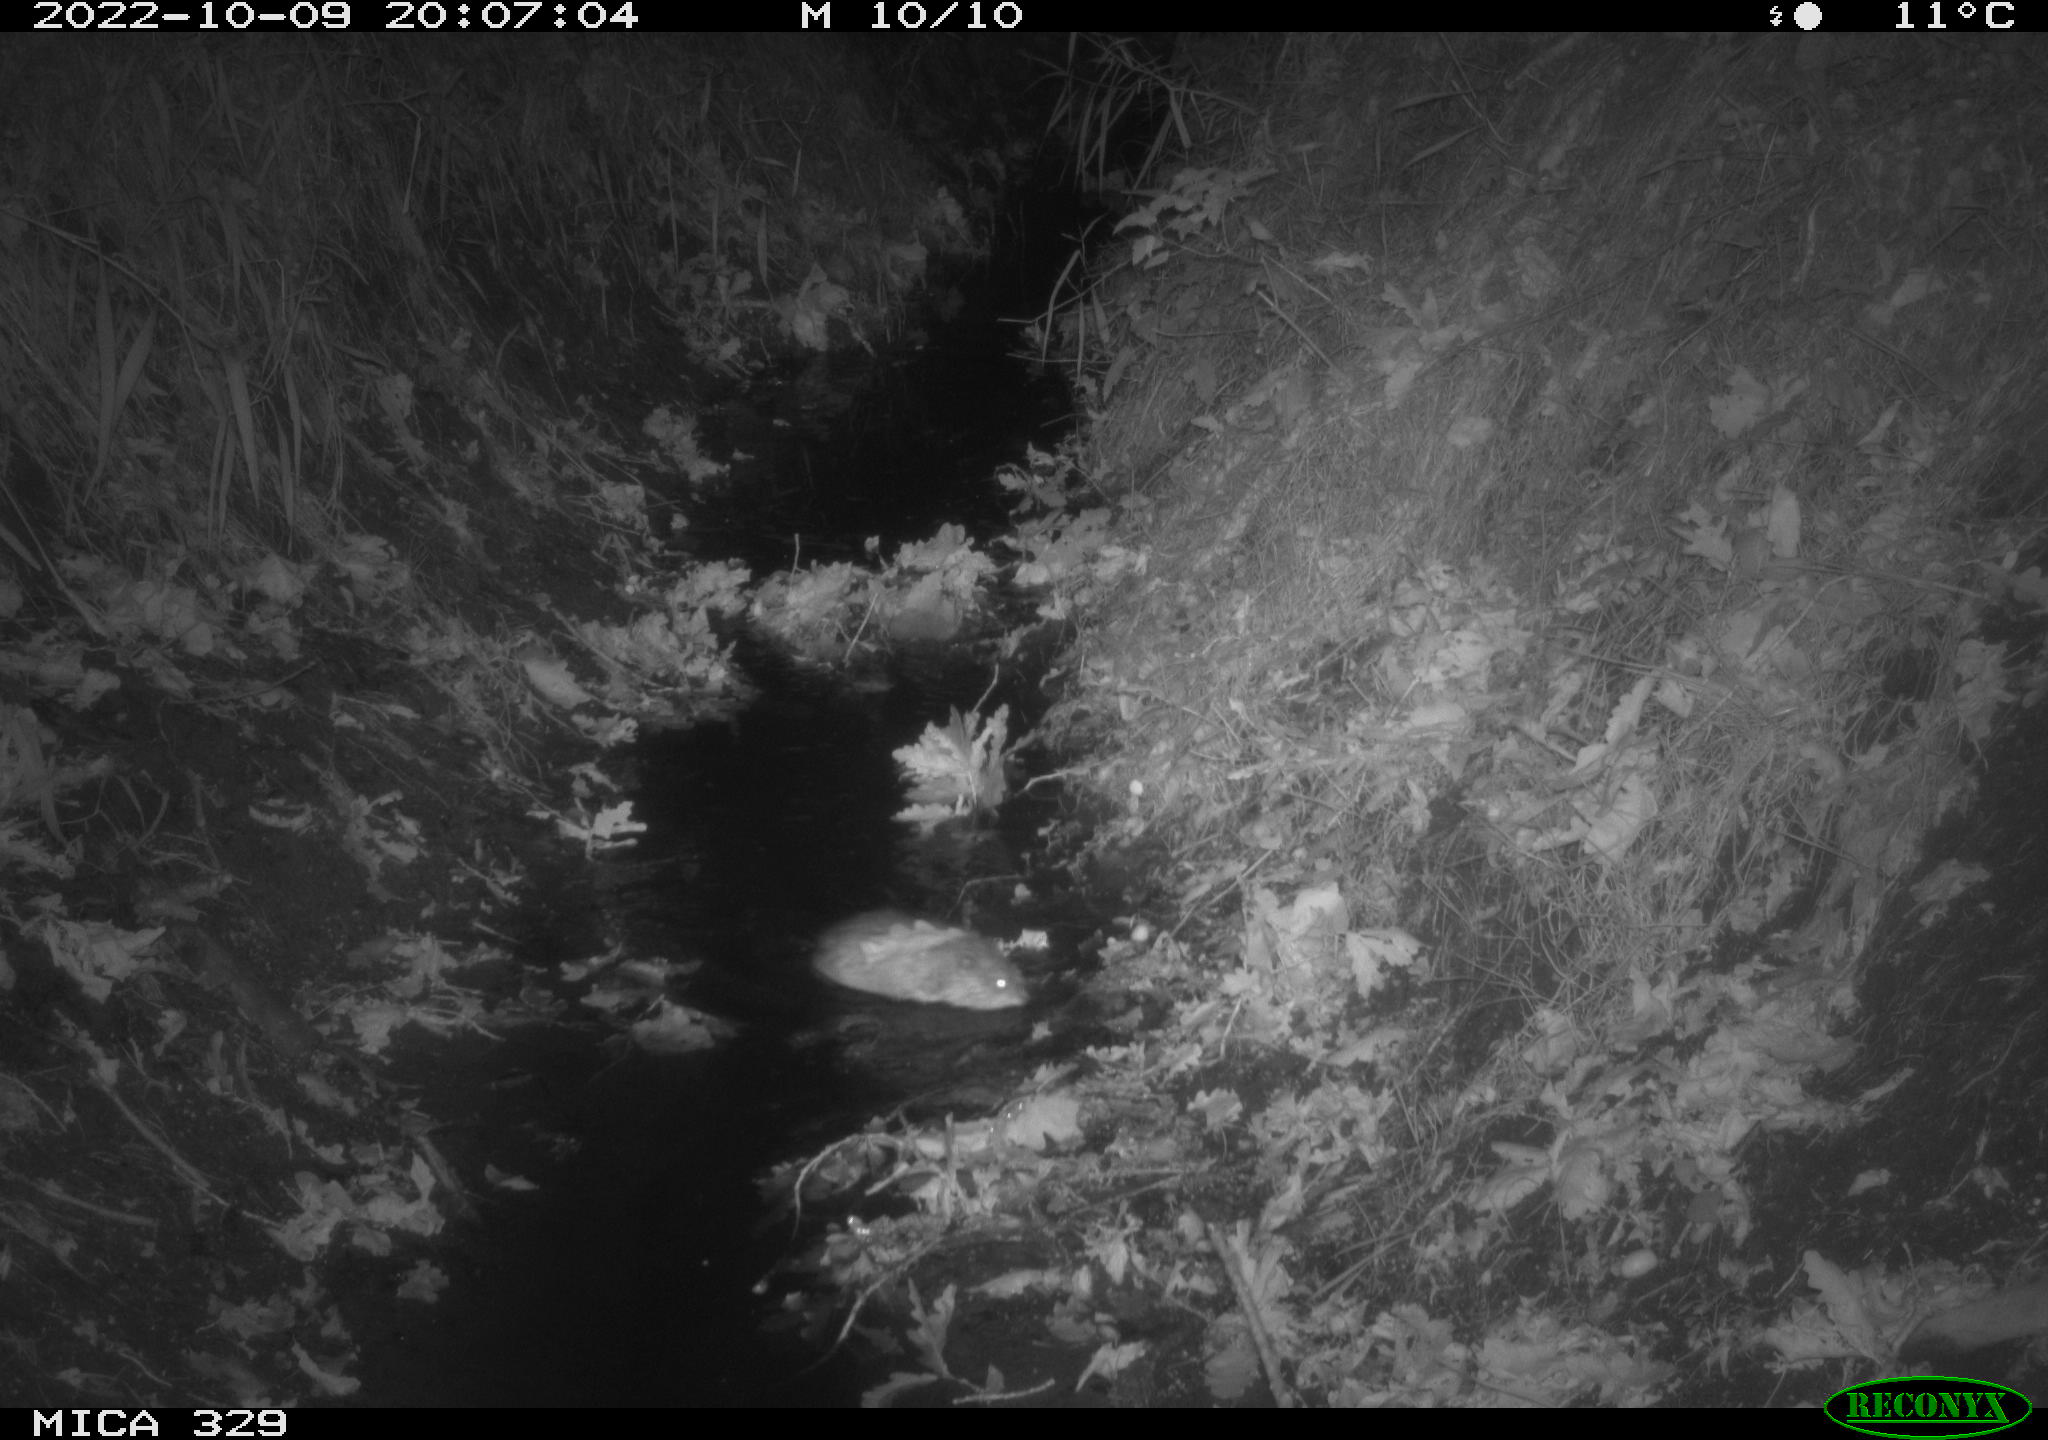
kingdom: Animalia
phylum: Chordata
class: Mammalia
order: Rodentia
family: Cricetidae
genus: Ondatra
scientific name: Ondatra zibethicus
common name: Muskrat
